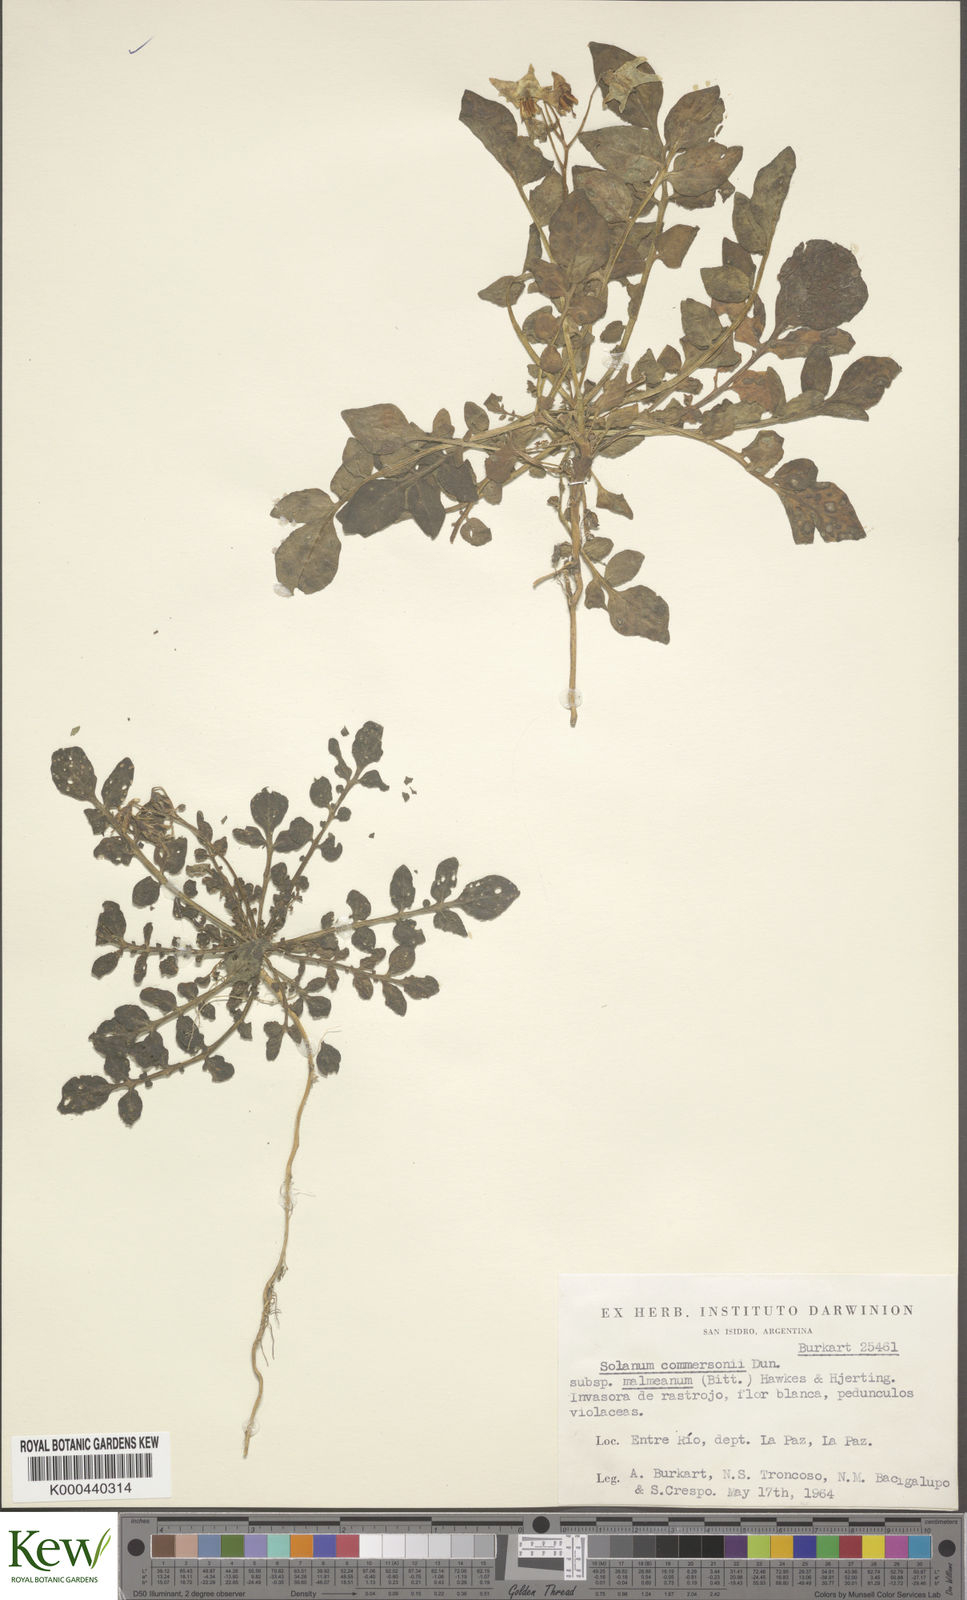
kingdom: Plantae
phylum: Tracheophyta
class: Magnoliopsida
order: Solanales
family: Solanaceae
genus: Solanum
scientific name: Solanum malmeanum
